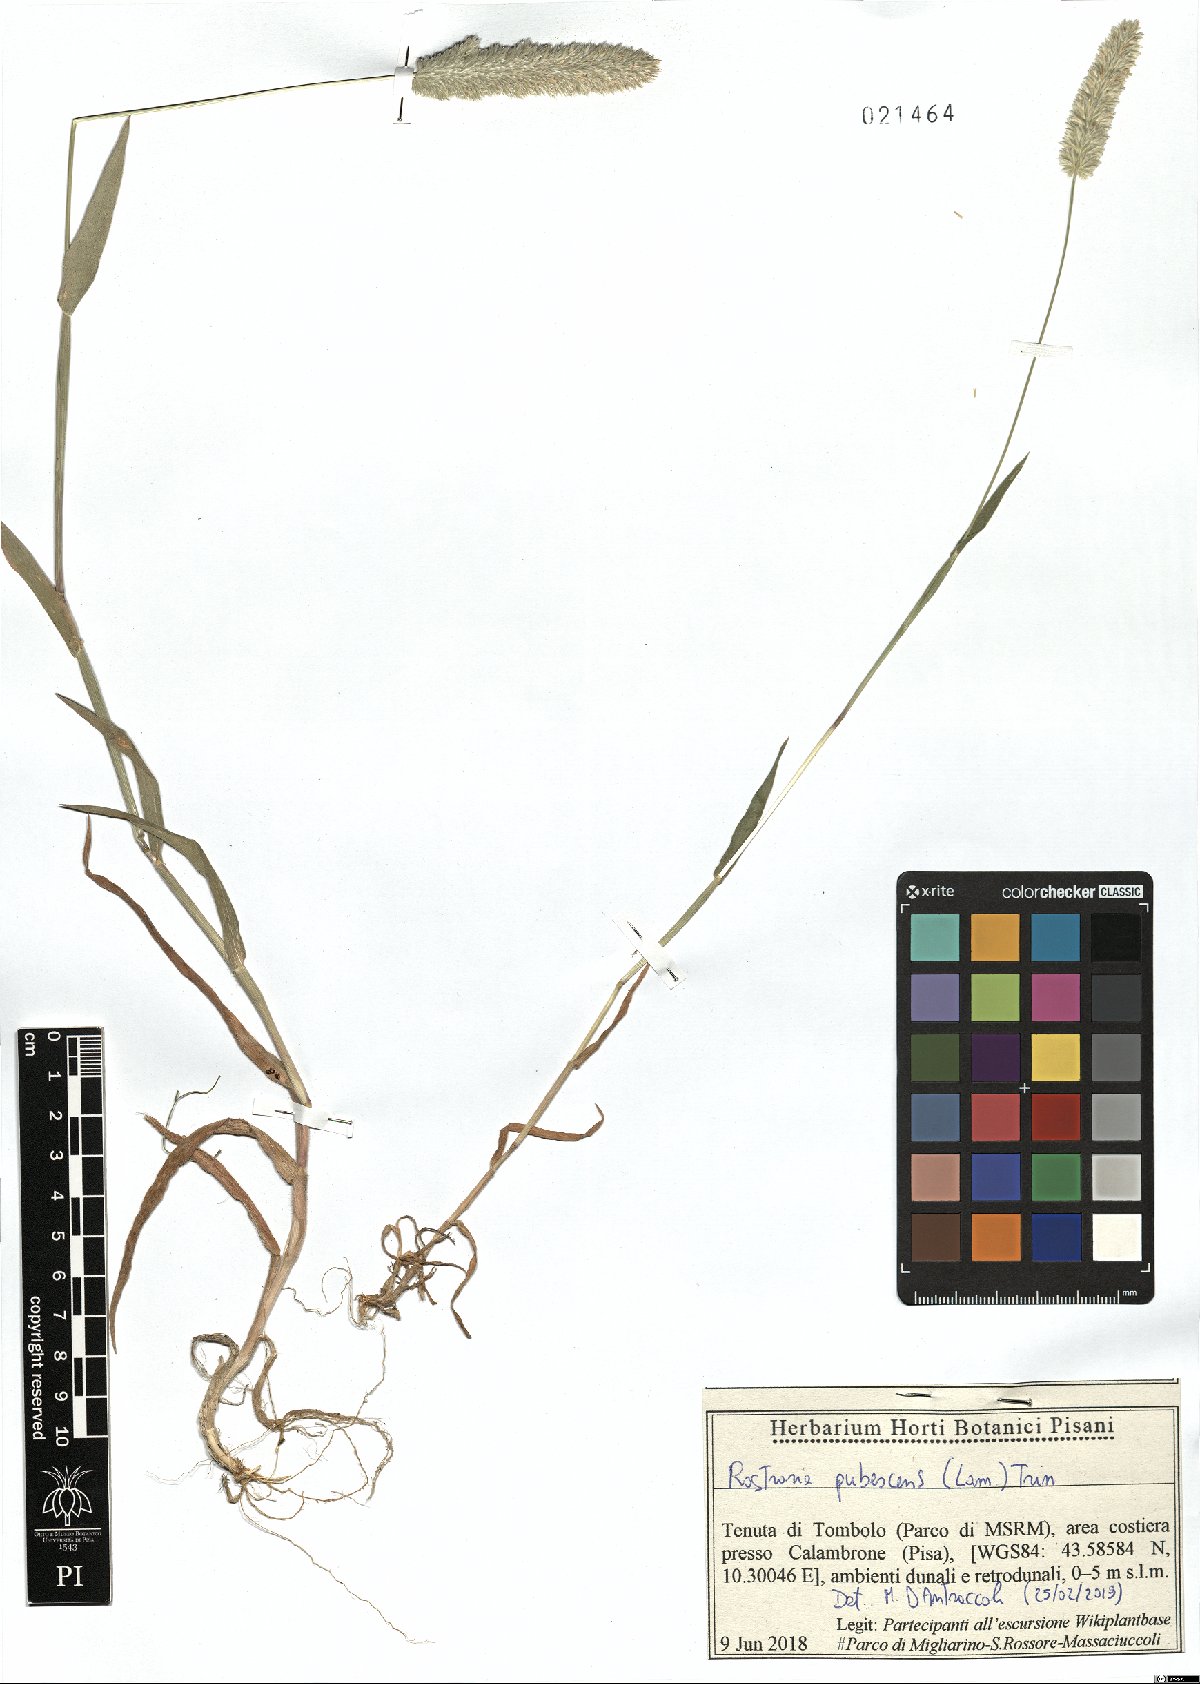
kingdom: Plantae
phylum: Tracheophyta
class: Liliopsida
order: Poales
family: Poaceae
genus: Rostraria
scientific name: Rostraria cristata
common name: Mediterranean hair-grass
